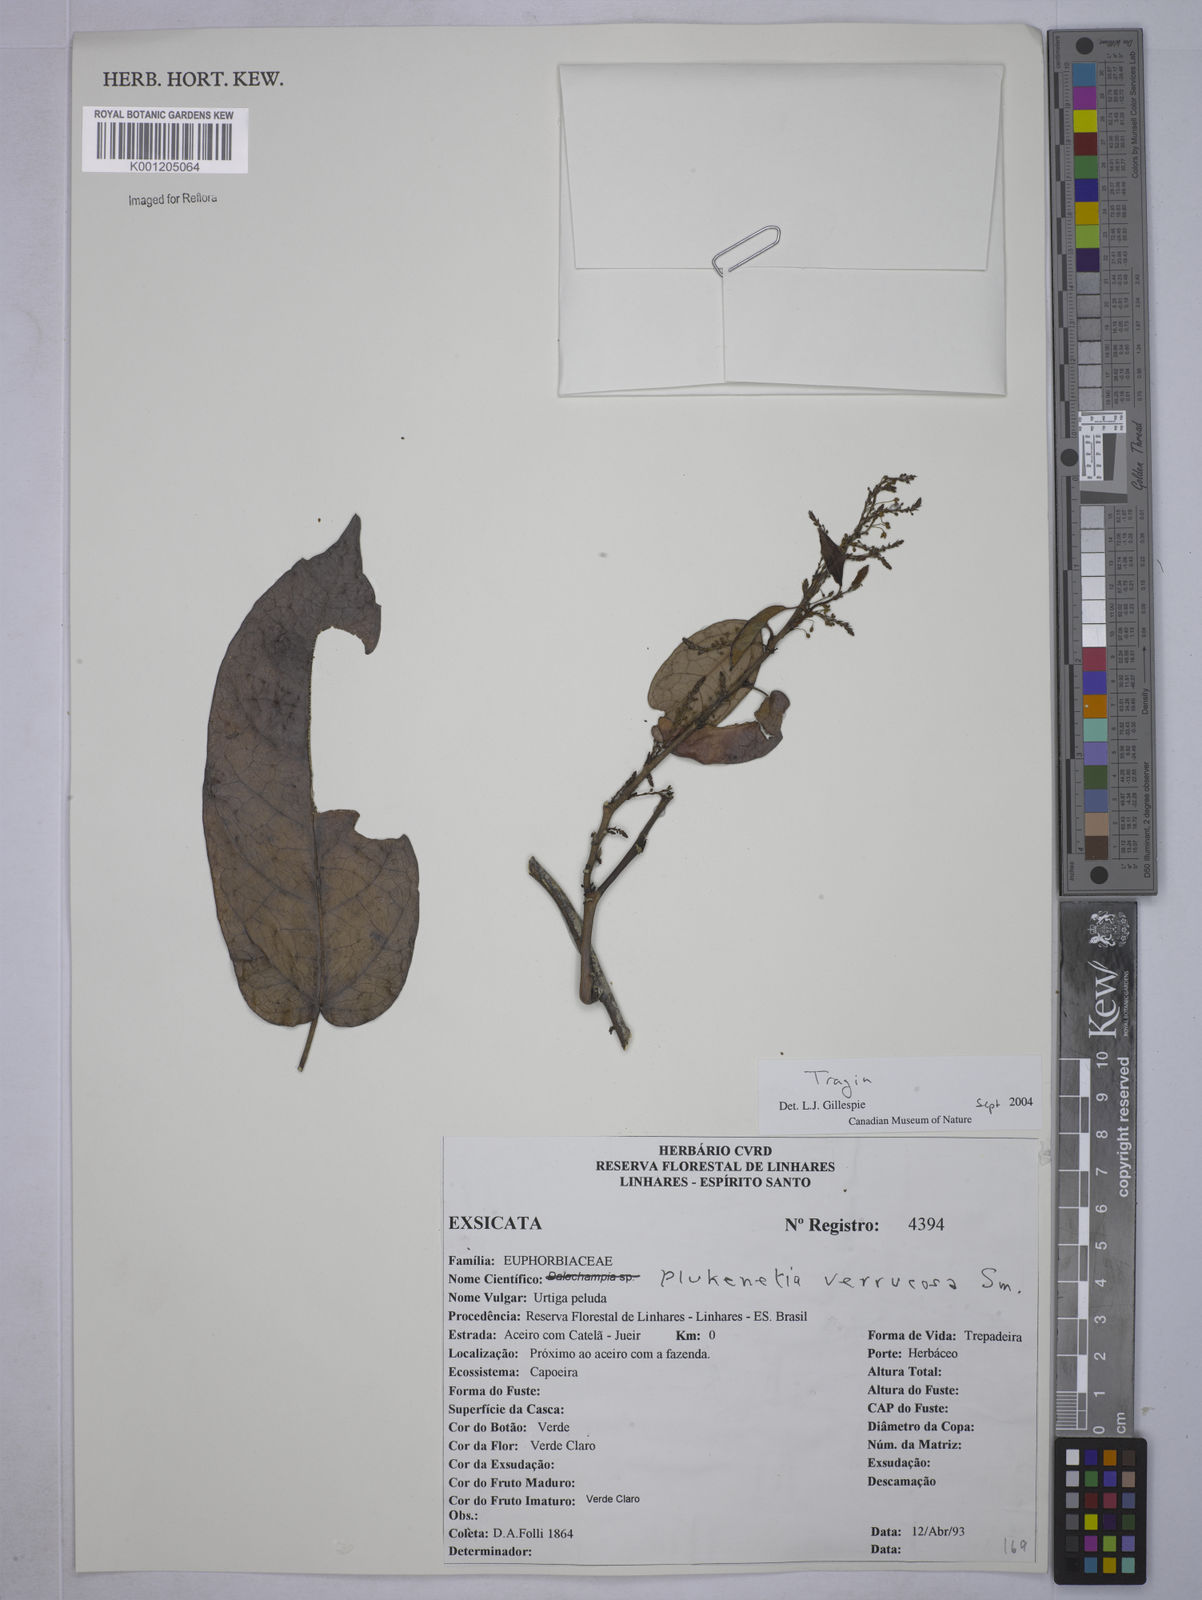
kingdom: Plantae
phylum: Tracheophyta
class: Magnoliopsida
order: Malpighiales
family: Euphorbiaceae
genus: Tragia
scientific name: Tragia peltata
